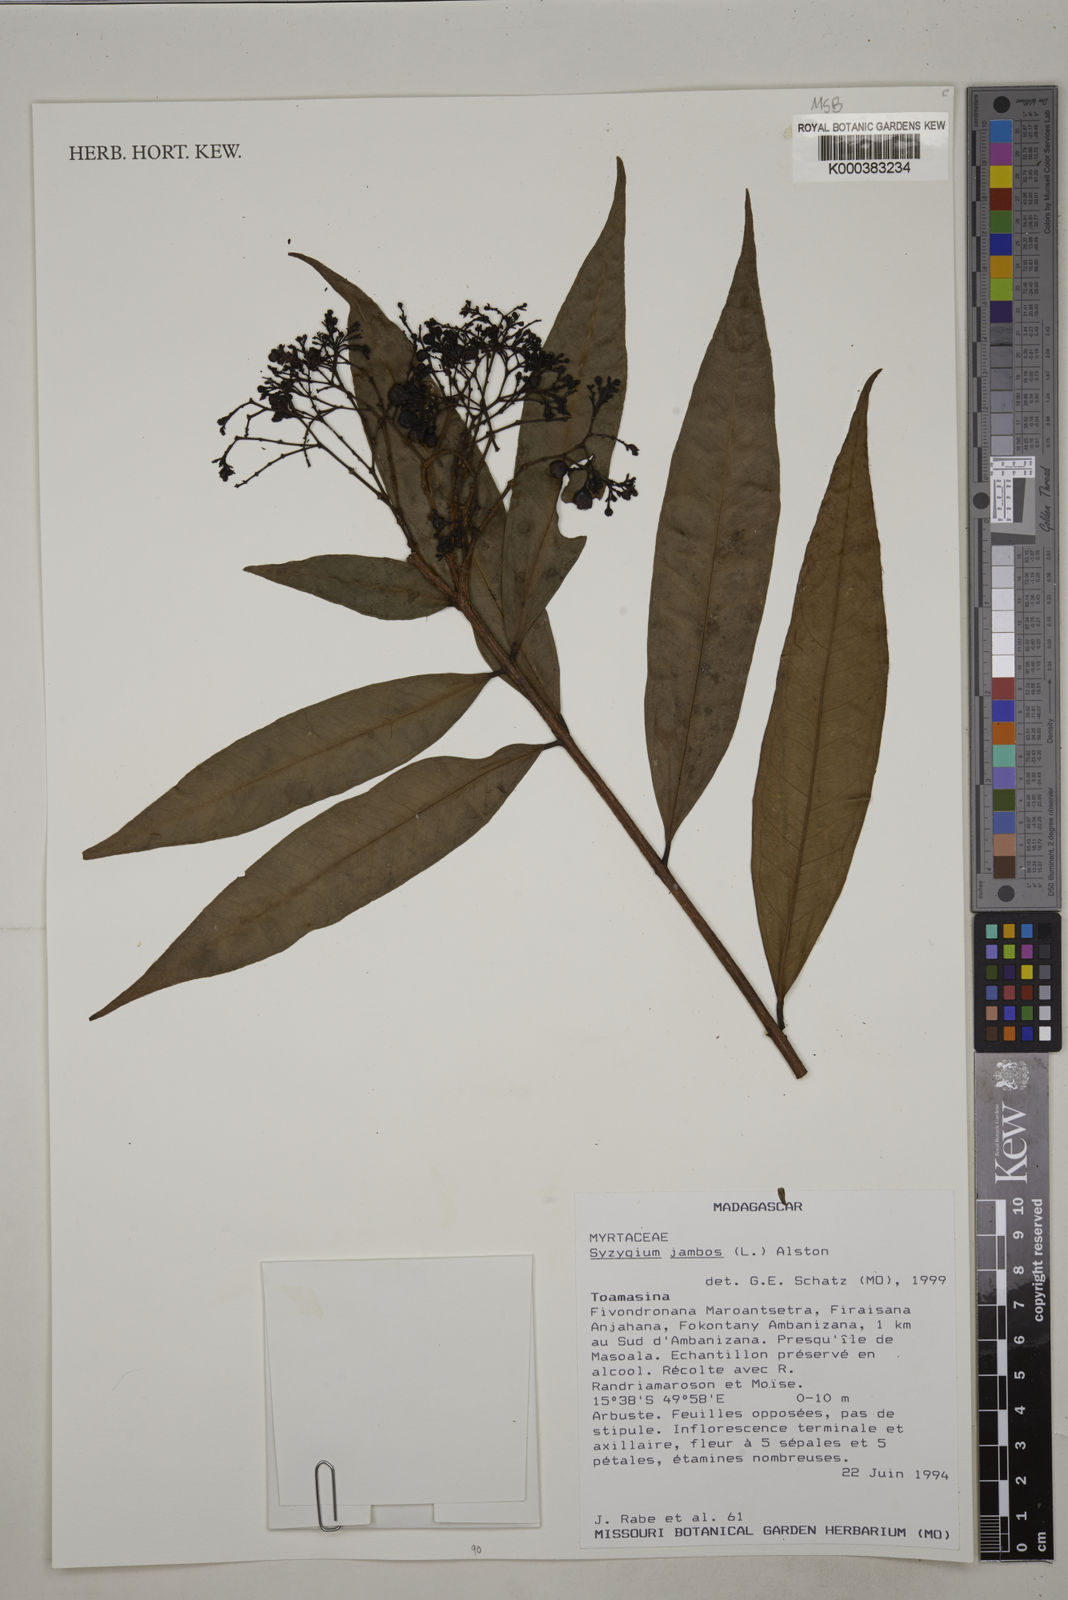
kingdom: Plantae
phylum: Tracheophyta
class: Magnoliopsida
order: Myrtales
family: Myrtaceae
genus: Syzygium
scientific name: Syzygium jambos
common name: Malabar plum
